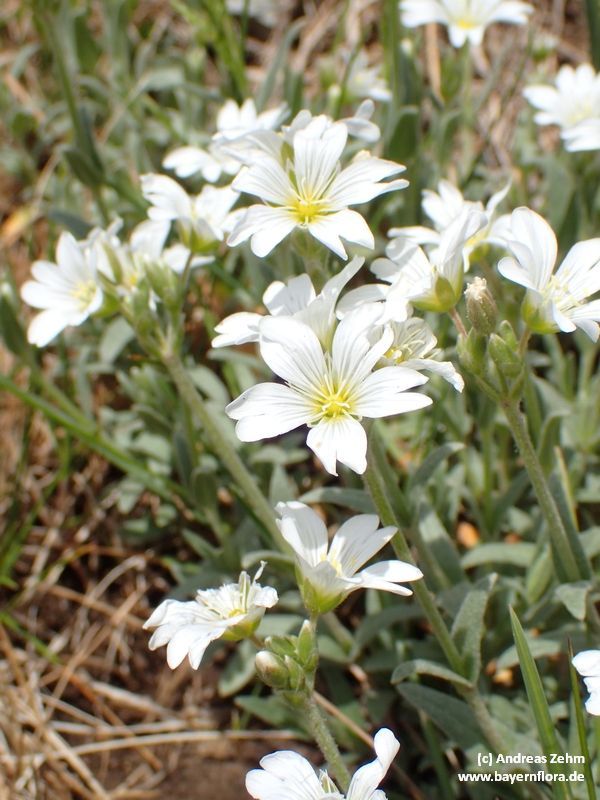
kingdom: Plantae
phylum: Tracheophyta
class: Magnoliopsida
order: Caryophyllales
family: Caryophyllaceae
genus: Cerastium
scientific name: Cerastium tomentosum
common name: Snow-in-summer
